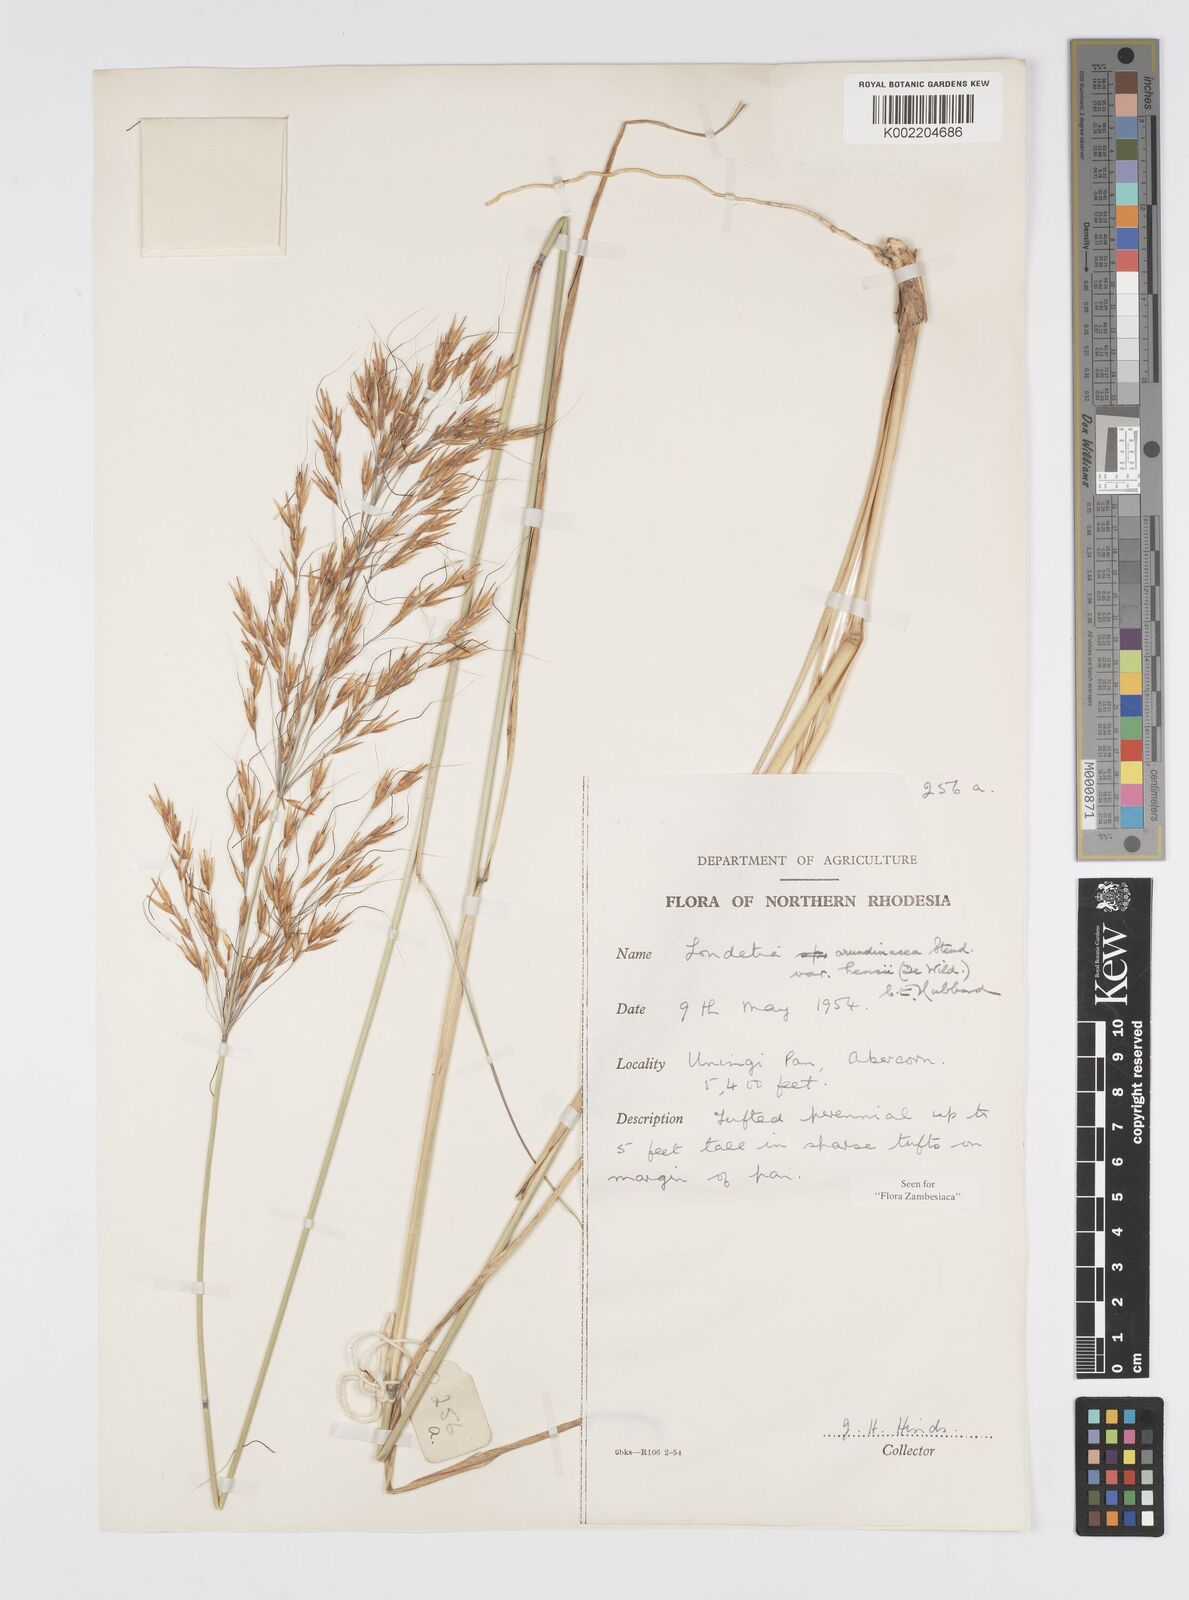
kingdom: Plantae
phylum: Tracheophyta
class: Liliopsida
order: Poales
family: Poaceae
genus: Loudetia
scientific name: Loudetia arundinacea
